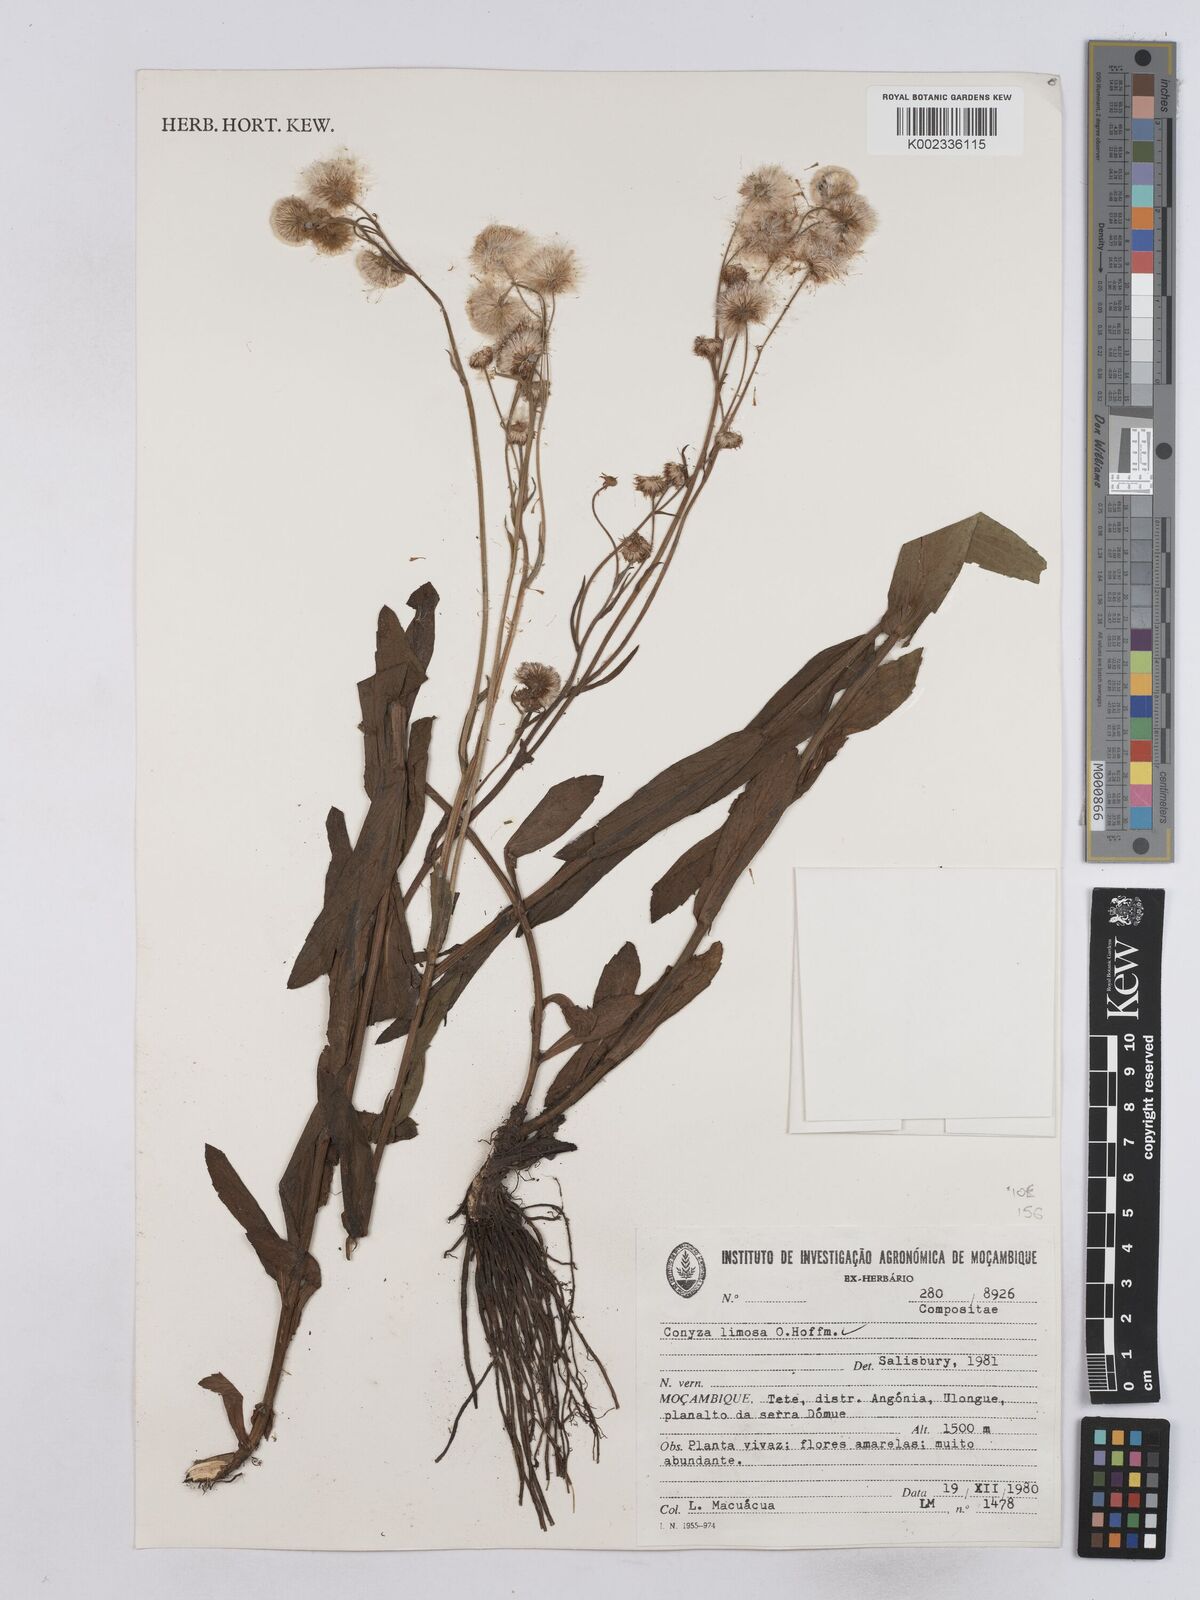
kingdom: Plantae
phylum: Tracheophyta
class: Magnoliopsida
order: Asterales
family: Asteraceae
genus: Conyza
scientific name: Conyza limosa
